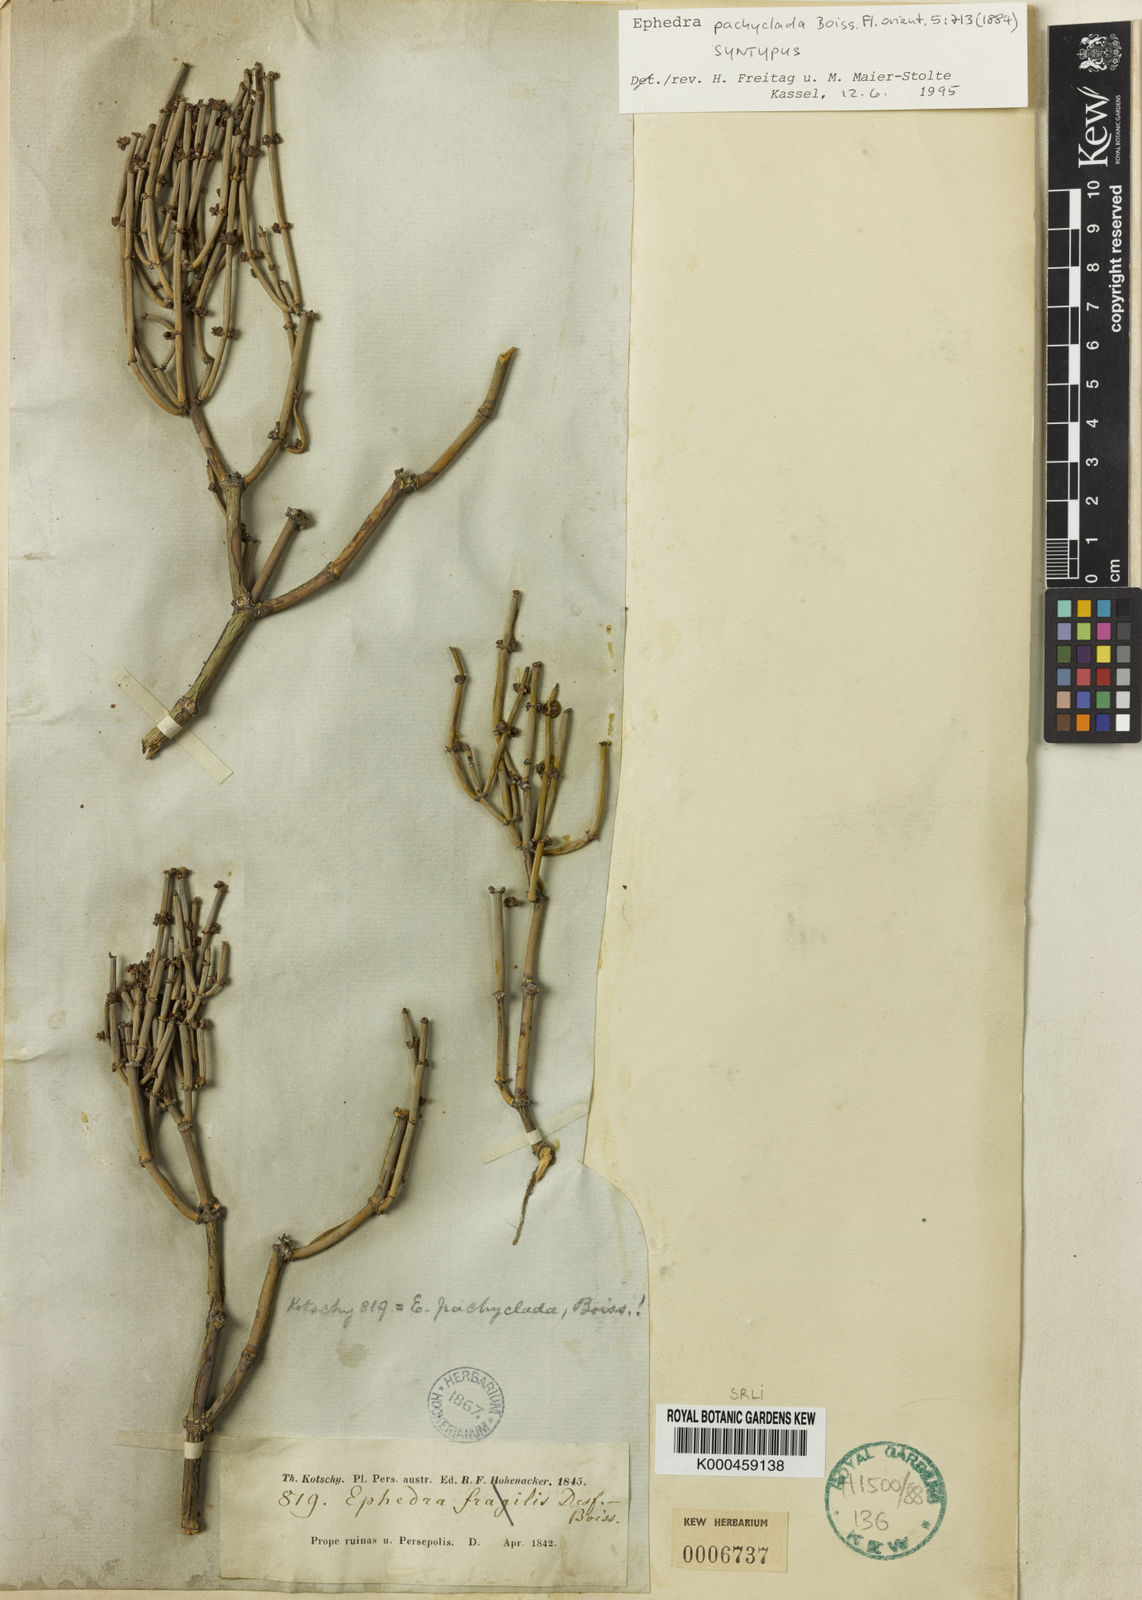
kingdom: Plantae
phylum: Tracheophyta
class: Gnetopsida
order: Ephedrales
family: Ephedraceae
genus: Ephedra
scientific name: Ephedra pachyclada
